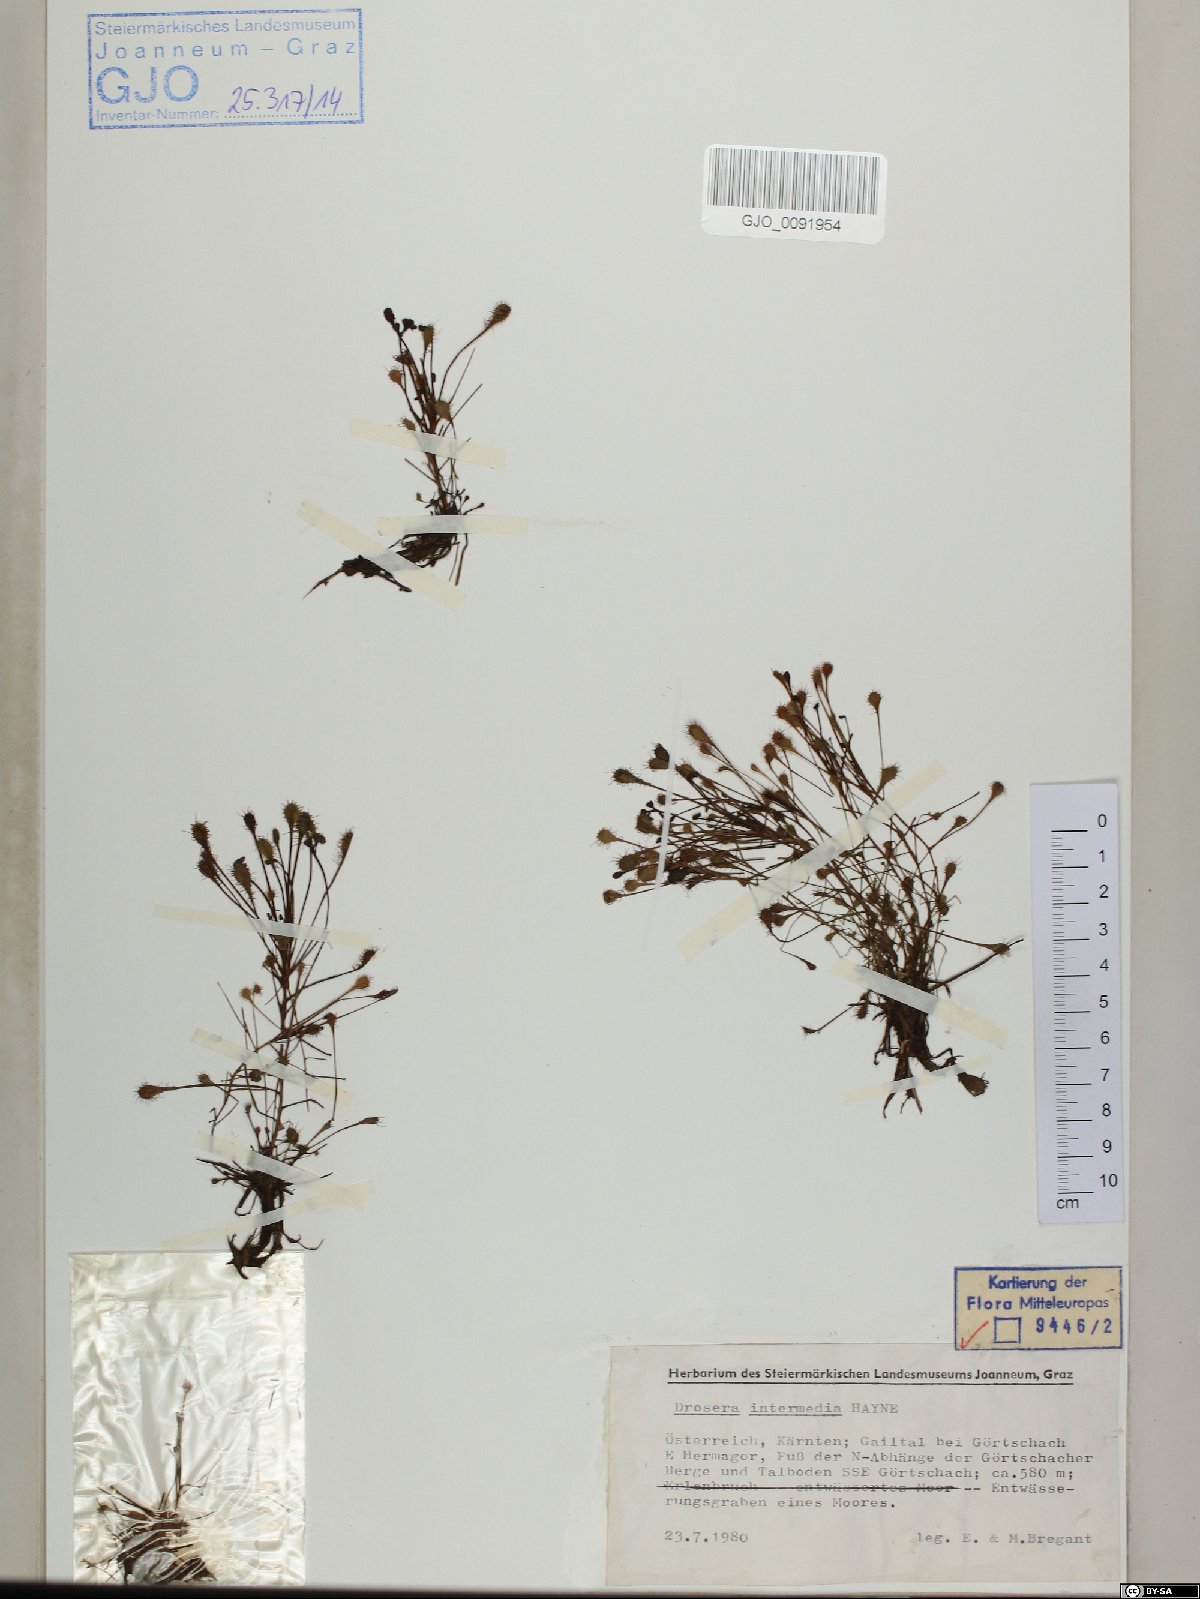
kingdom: Plantae
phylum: Tracheophyta
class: Magnoliopsida
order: Caryophyllales
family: Droseraceae
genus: Drosera
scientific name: Drosera intermedia
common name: Oblong-leaved sundew
